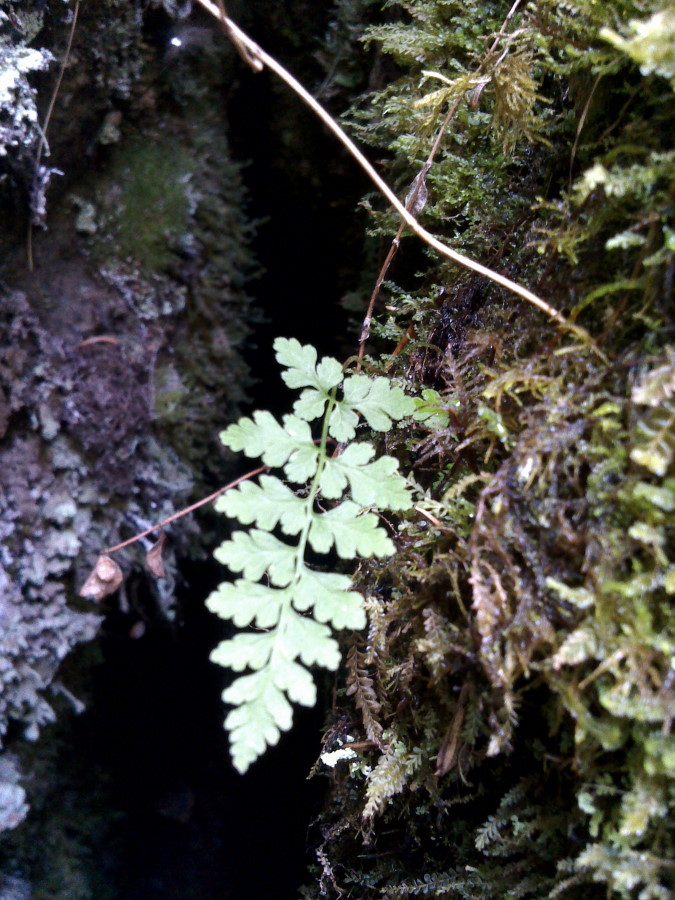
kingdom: Plantae
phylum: Tracheophyta
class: Polypodiopsida
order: Polypodiales
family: Cystopteridaceae
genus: Cystopteris
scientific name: Cystopteris fragilis
